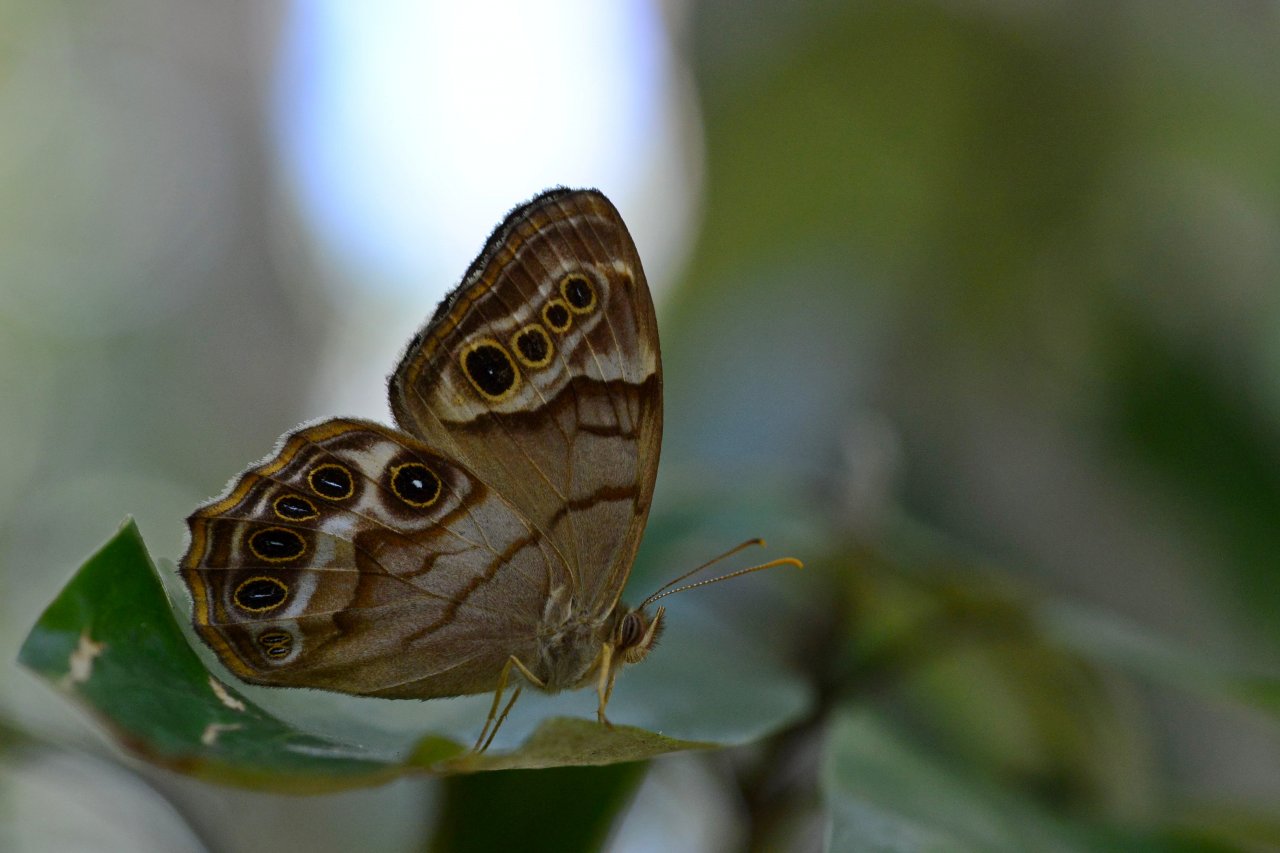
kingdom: Animalia
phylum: Arthropoda
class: Insecta
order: Lepidoptera
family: Nymphalidae
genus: Enodia
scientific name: Enodia portlandia
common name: Southern Pearly Eye
